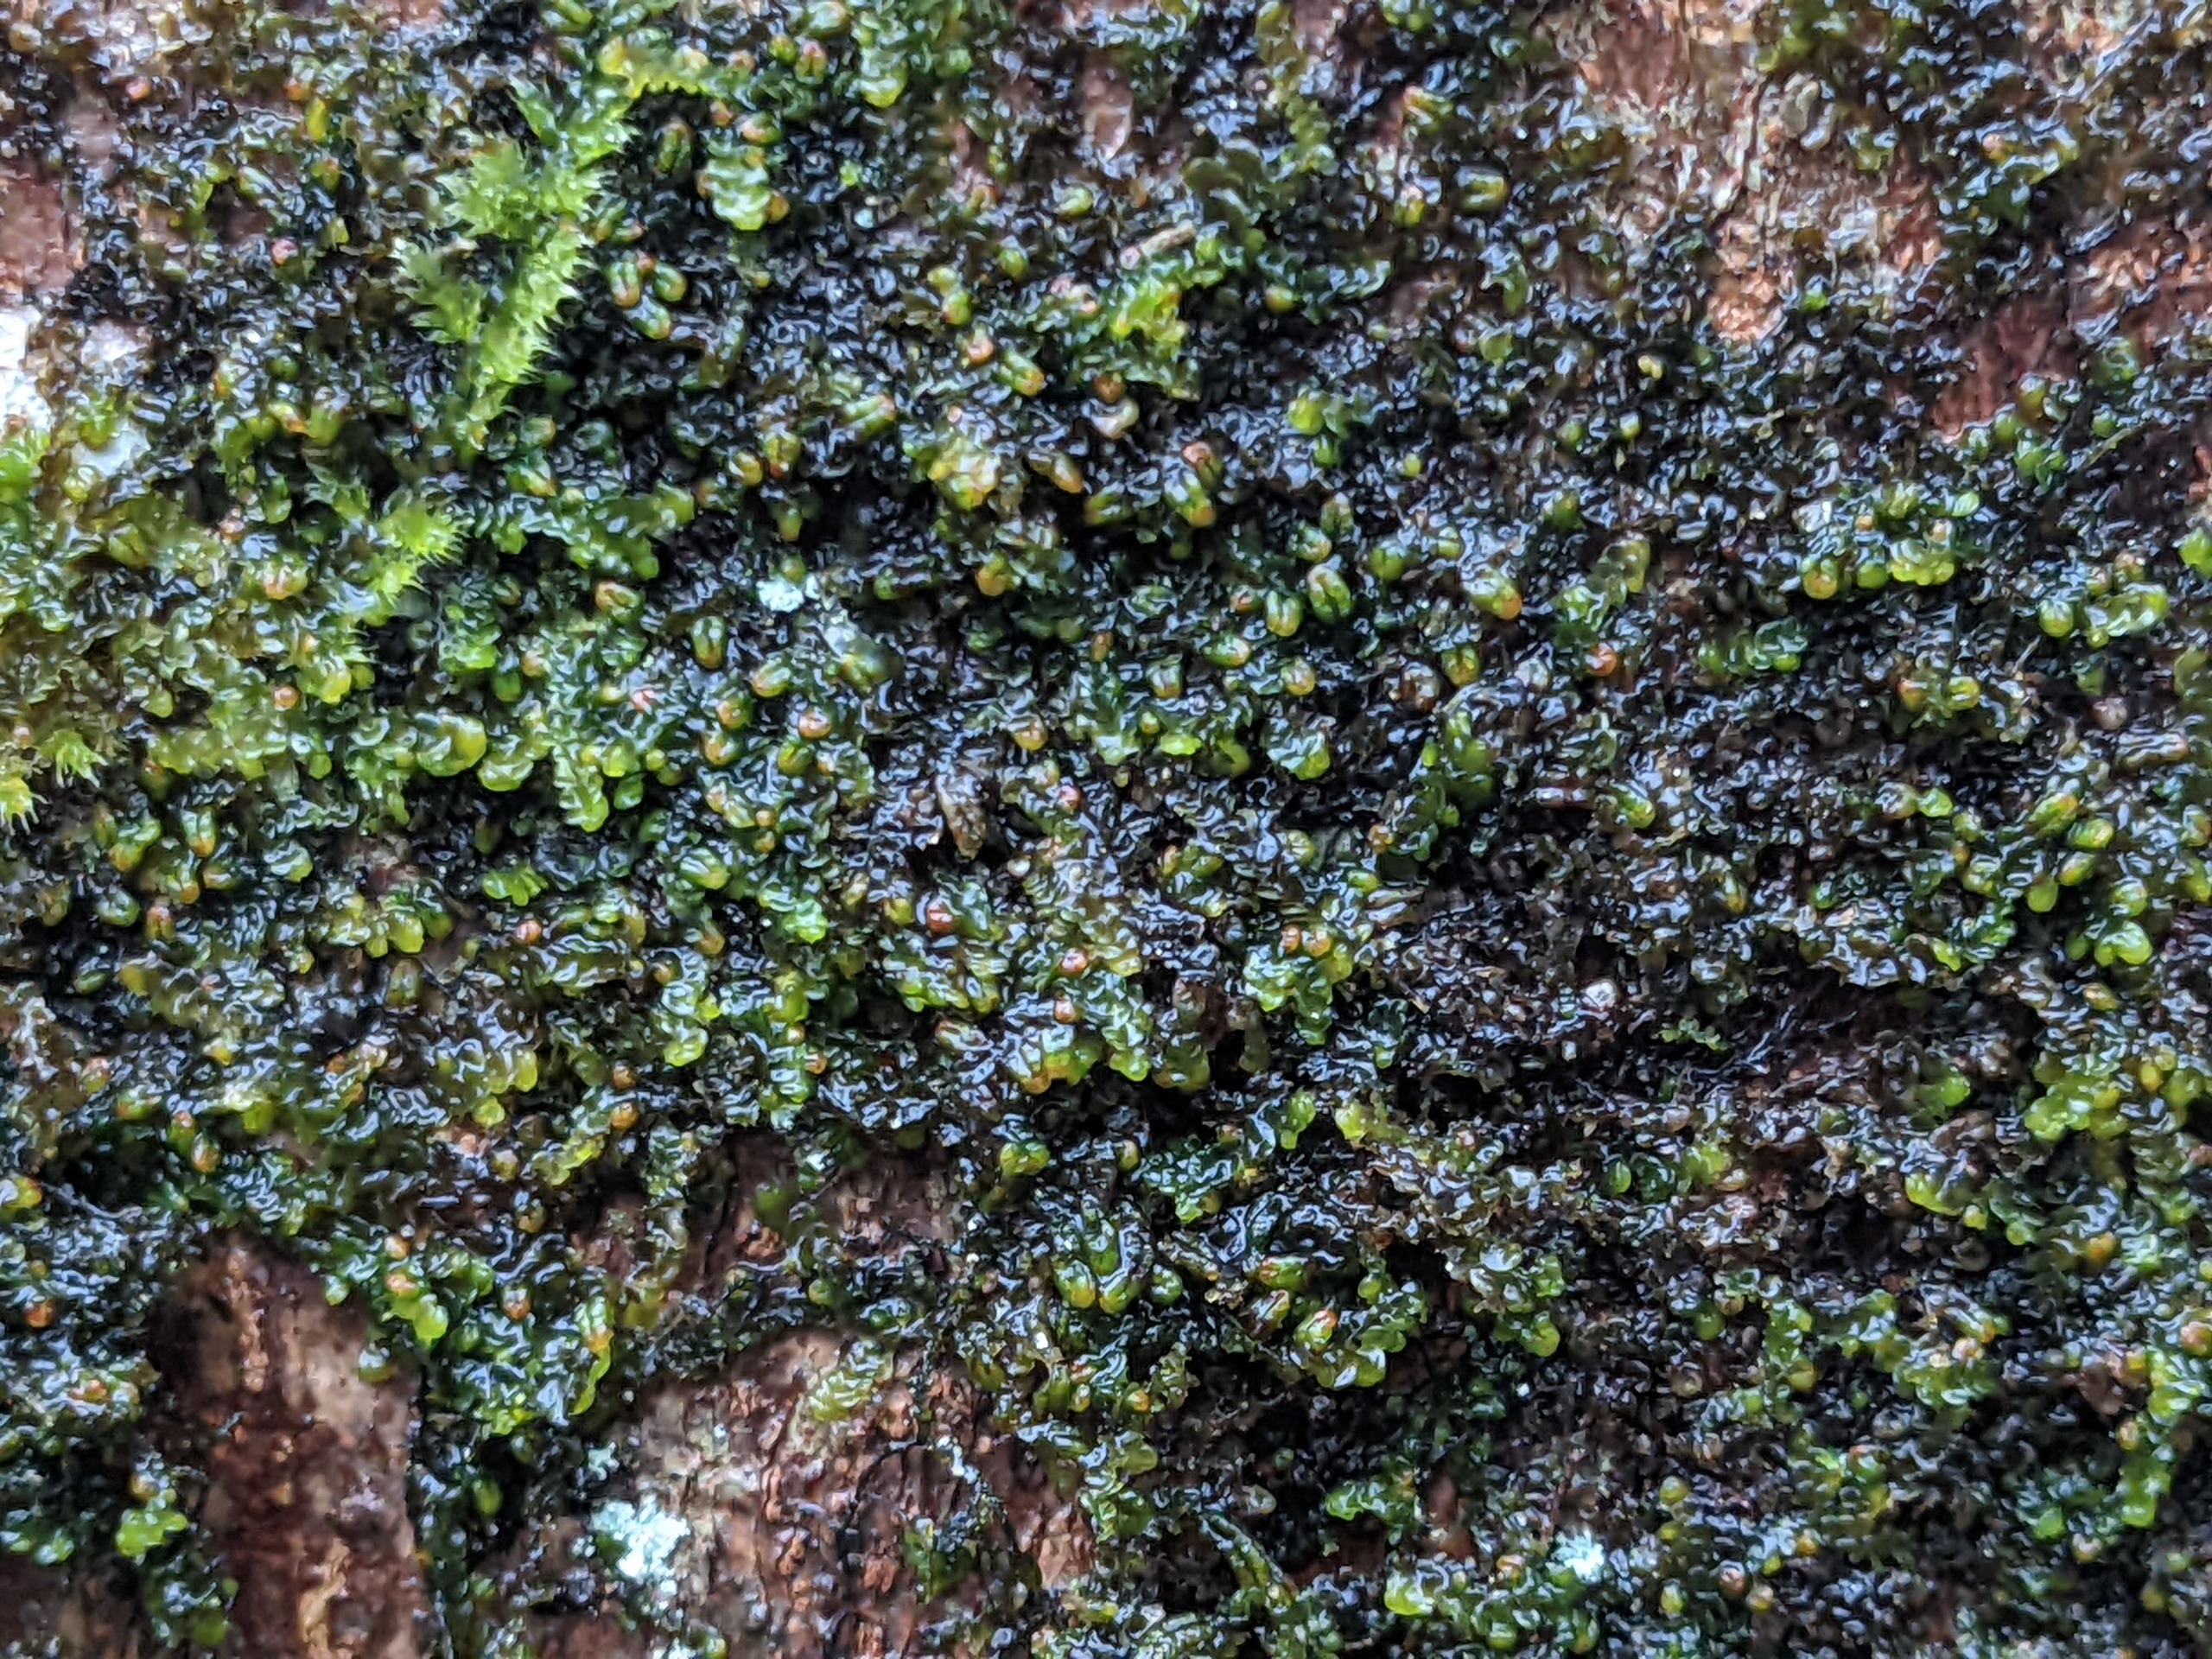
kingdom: Plantae
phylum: Marchantiophyta
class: Jungermanniopsida
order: Porellales
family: Frullaniaceae
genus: Frullania
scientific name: Frullania dilatata
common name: Mat bronzemos
